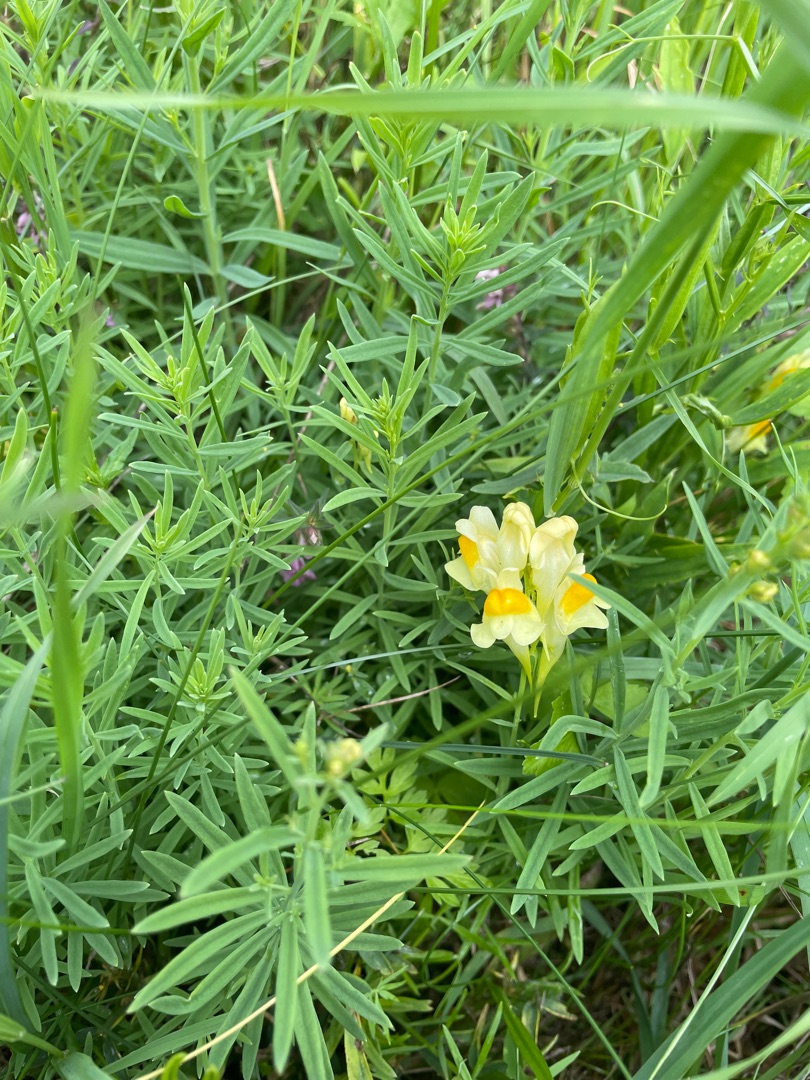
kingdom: Plantae
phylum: Tracheophyta
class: Magnoliopsida
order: Lamiales
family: Plantaginaceae
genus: Linaria
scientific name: Linaria vulgaris
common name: Almindelig torskemund
